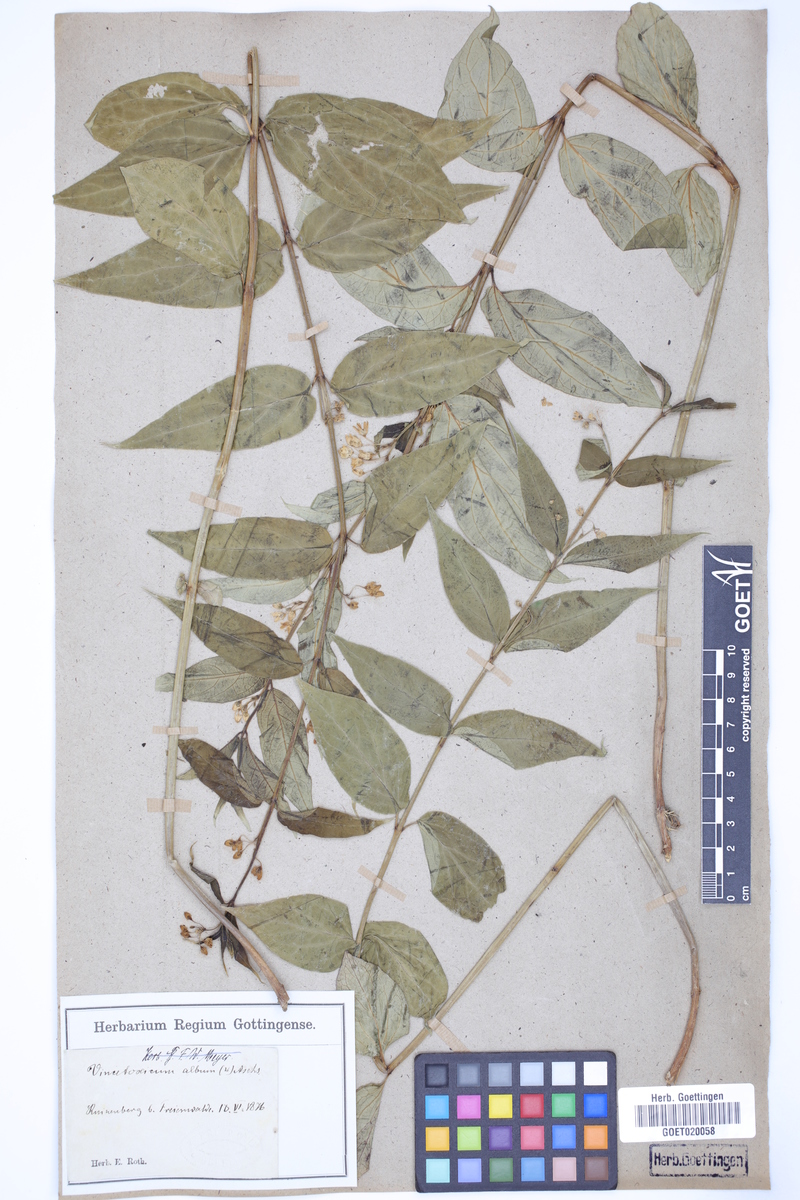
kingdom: Plantae
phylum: Tracheophyta
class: Magnoliopsida
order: Gentianales
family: Apocynaceae
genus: Vincetoxicum
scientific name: Vincetoxicum hirundinaria
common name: White swallowwort
